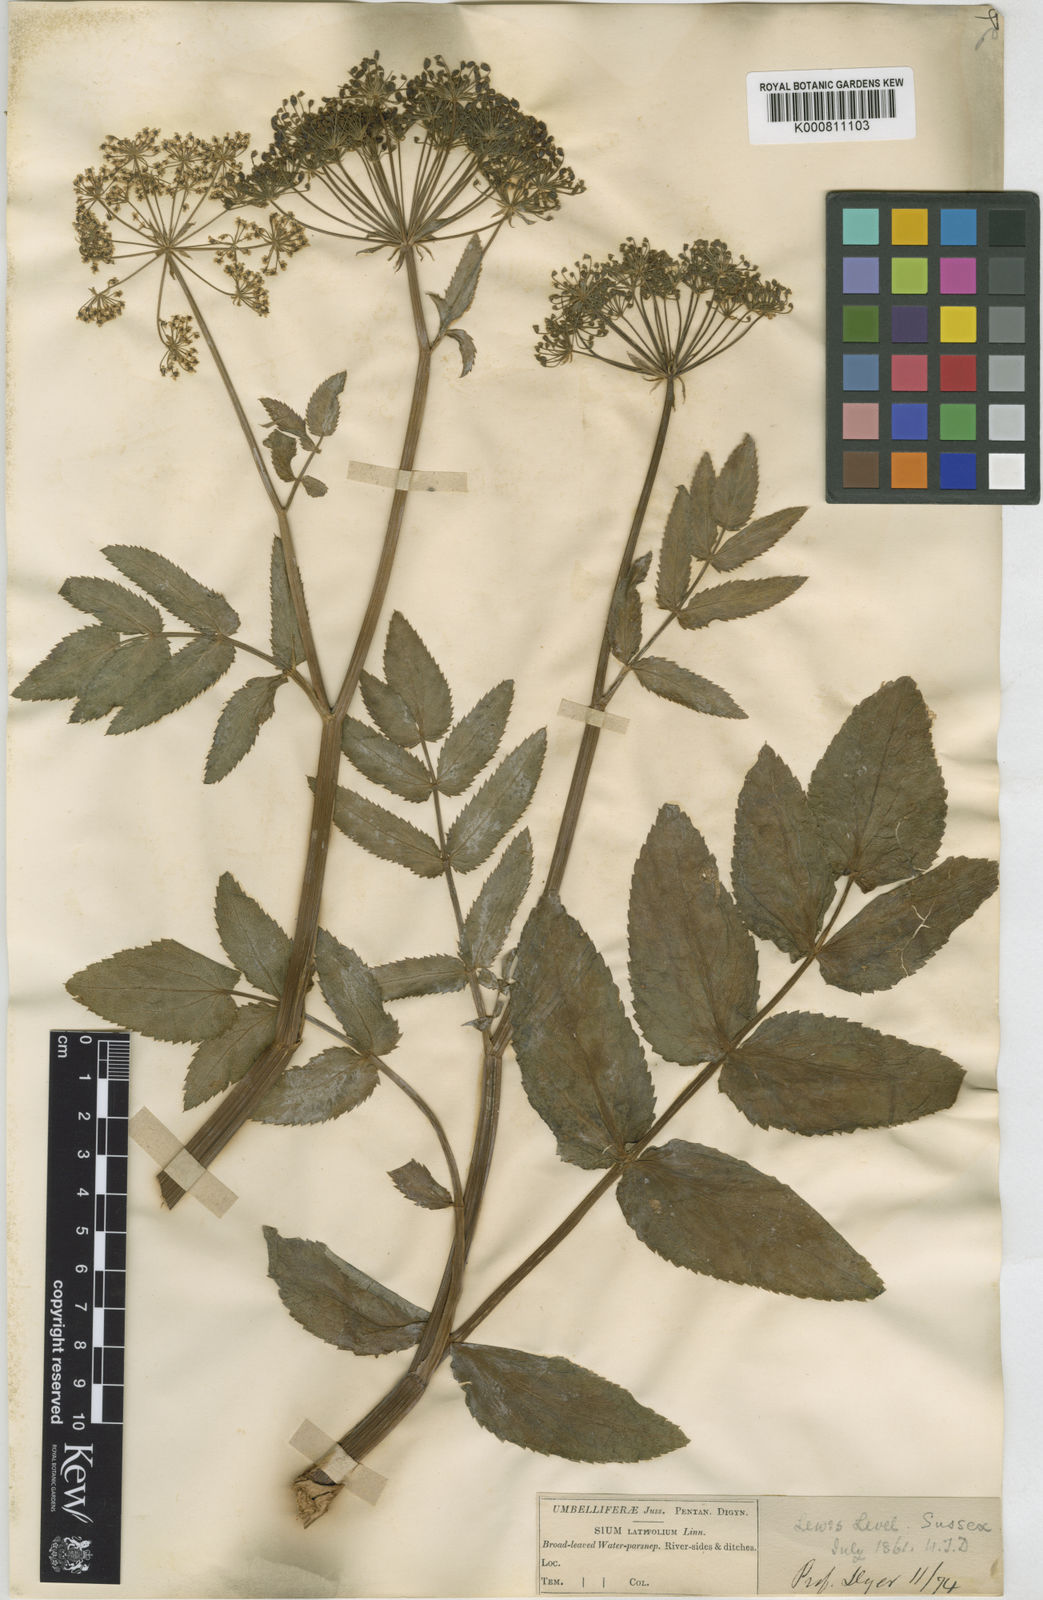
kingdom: Plantae
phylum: Tracheophyta
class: Magnoliopsida
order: Apiales
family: Apiaceae
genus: Sium
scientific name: Sium latifolium
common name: Greater water-parsnip
